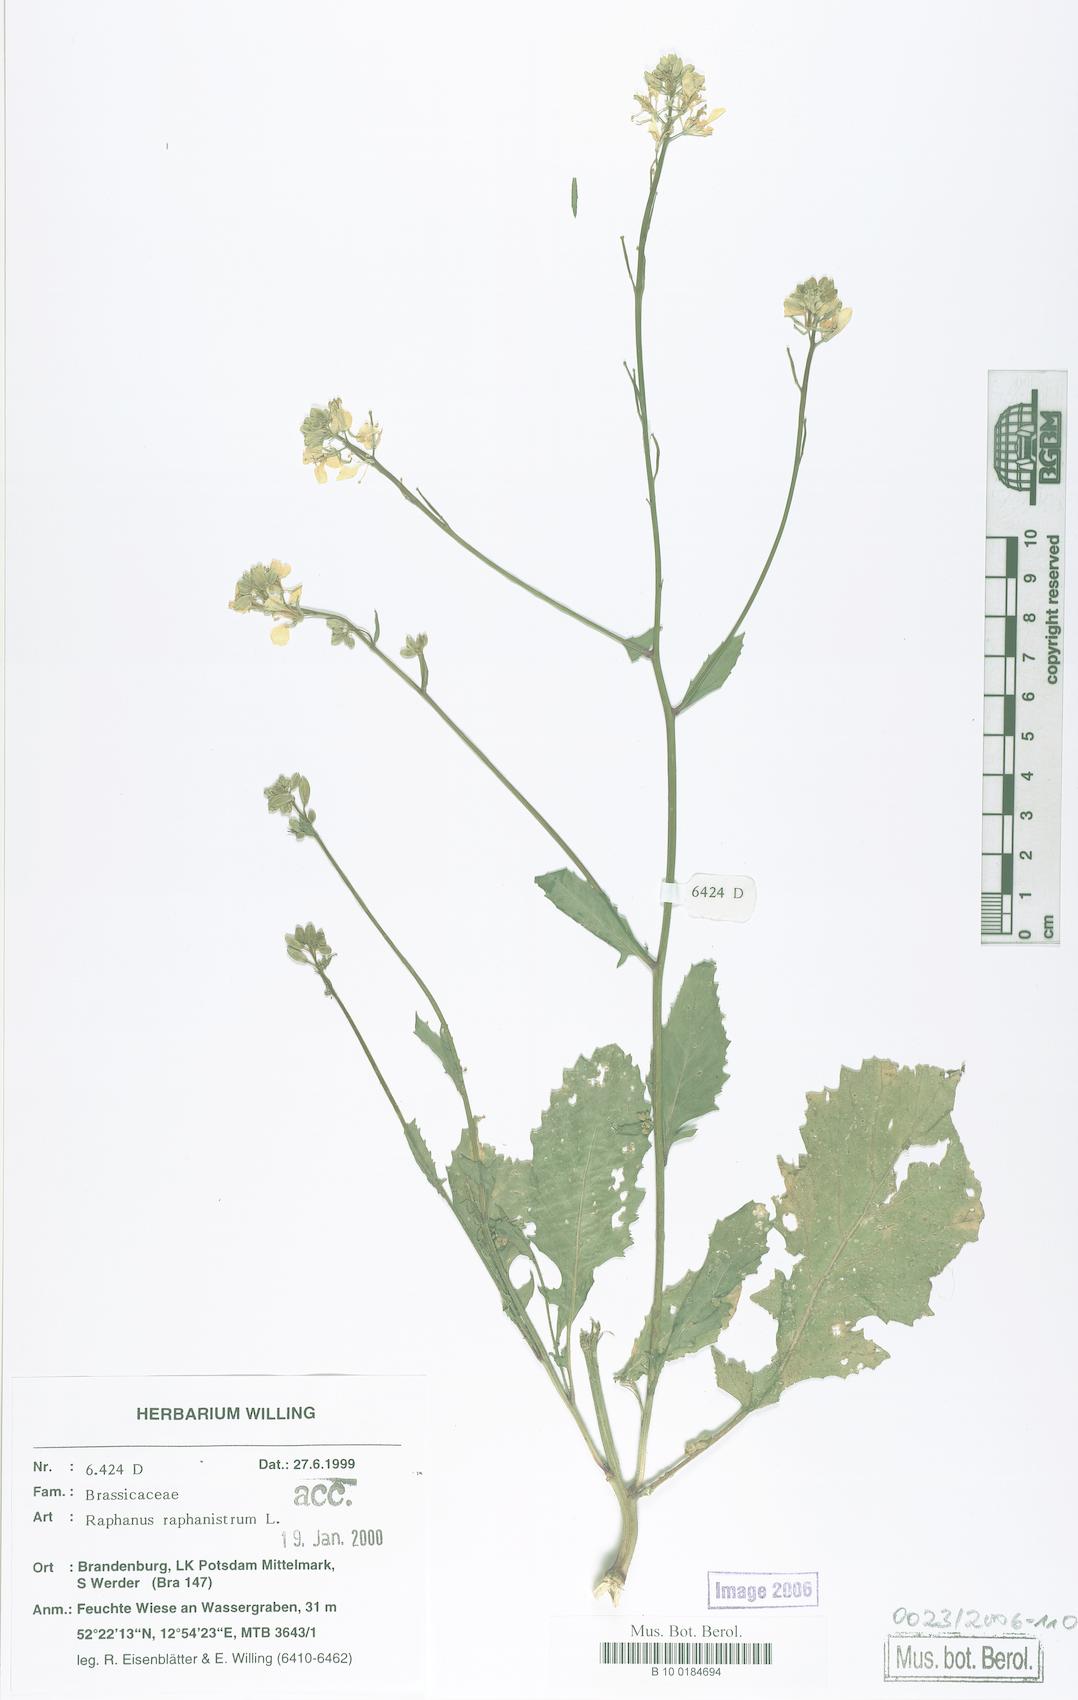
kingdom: Plantae
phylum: Tracheophyta
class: Magnoliopsida
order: Brassicales
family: Brassicaceae
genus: Raphanus
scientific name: Raphanus raphanistrum
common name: Wild radish
